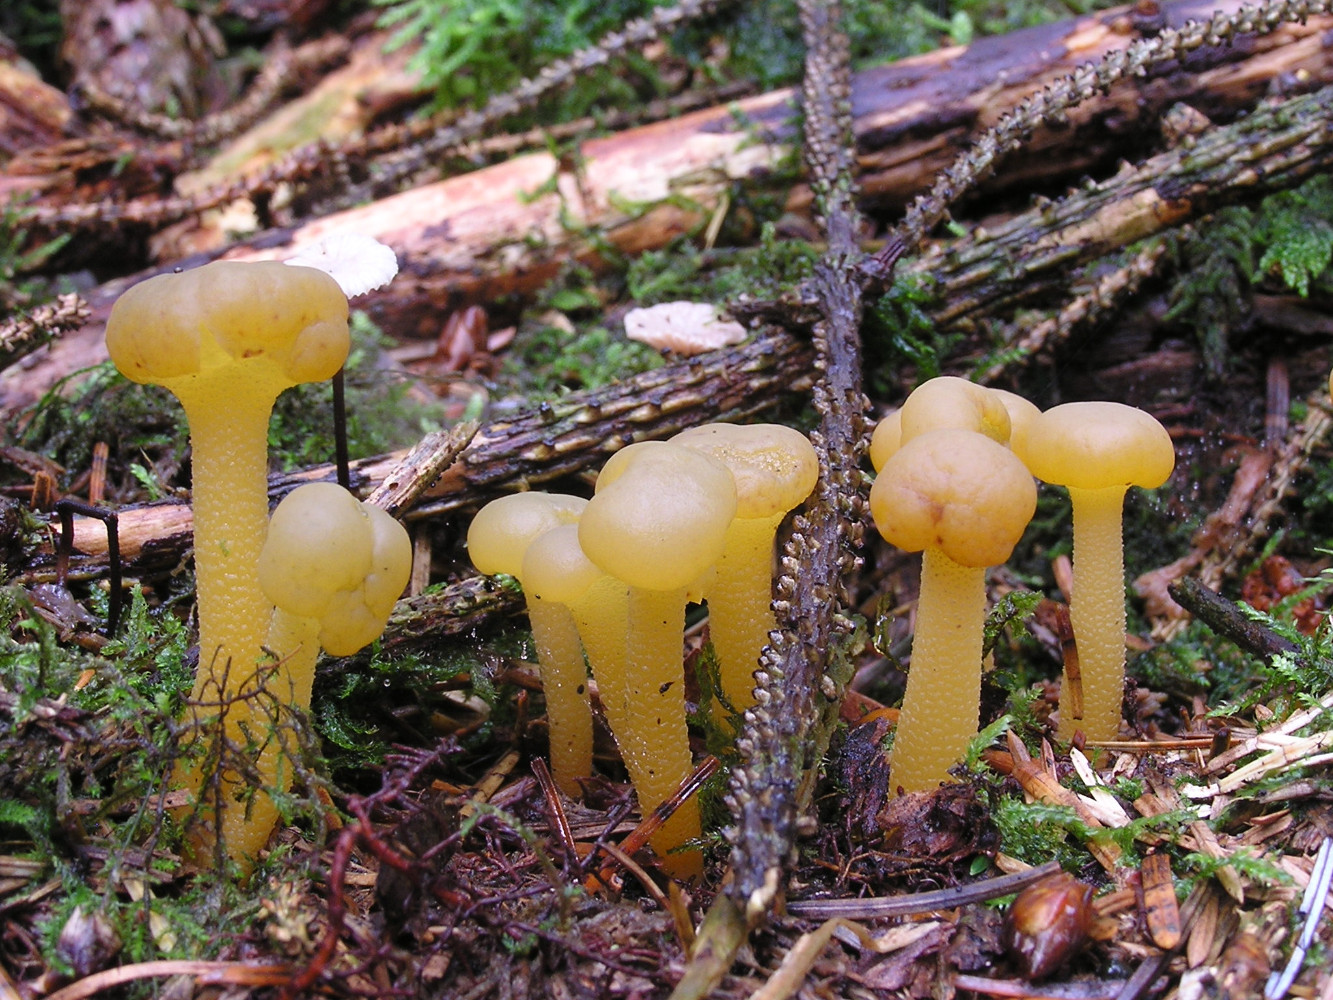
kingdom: Fungi
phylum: Ascomycota
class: Leotiomycetes
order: Leotiales
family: Leotiaceae
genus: Leotia
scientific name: Leotia lubrica
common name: ravsvamp
